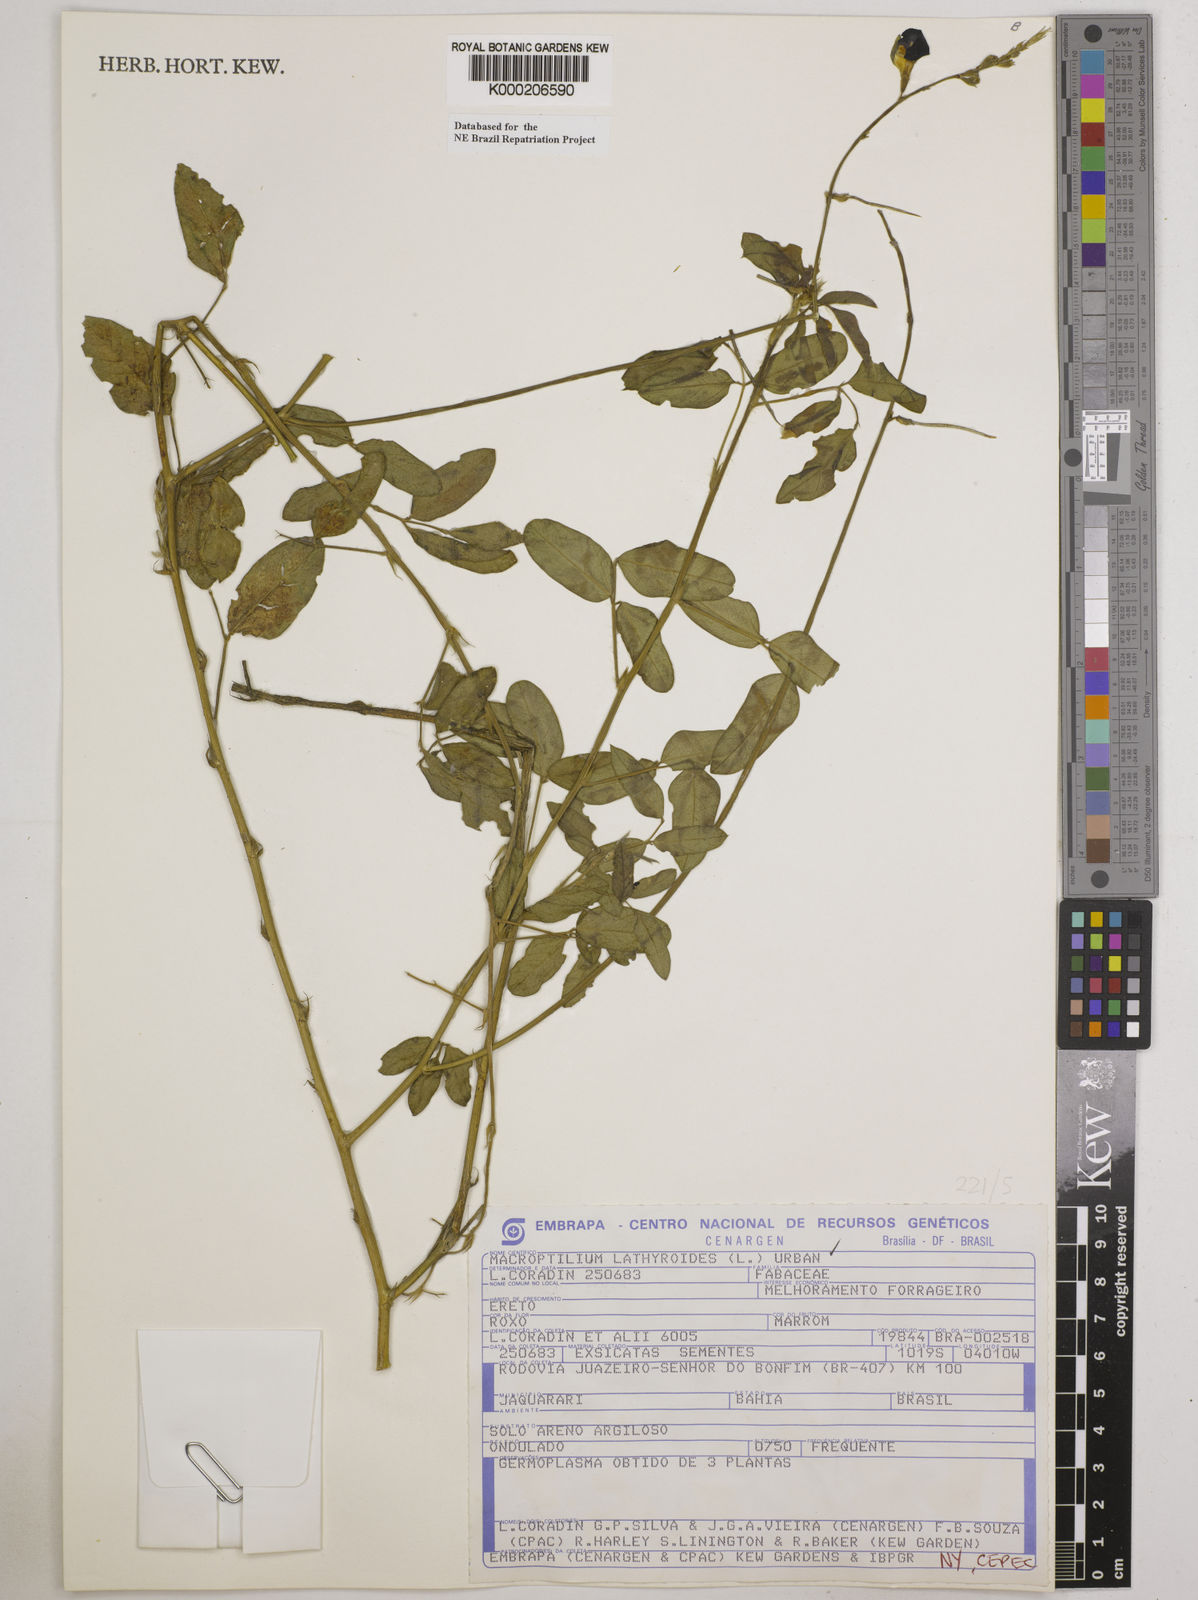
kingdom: Plantae
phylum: Tracheophyta
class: Magnoliopsida
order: Fabales
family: Fabaceae
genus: Macroptilium
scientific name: Macroptilium lathyroides
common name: Wild bushbean
